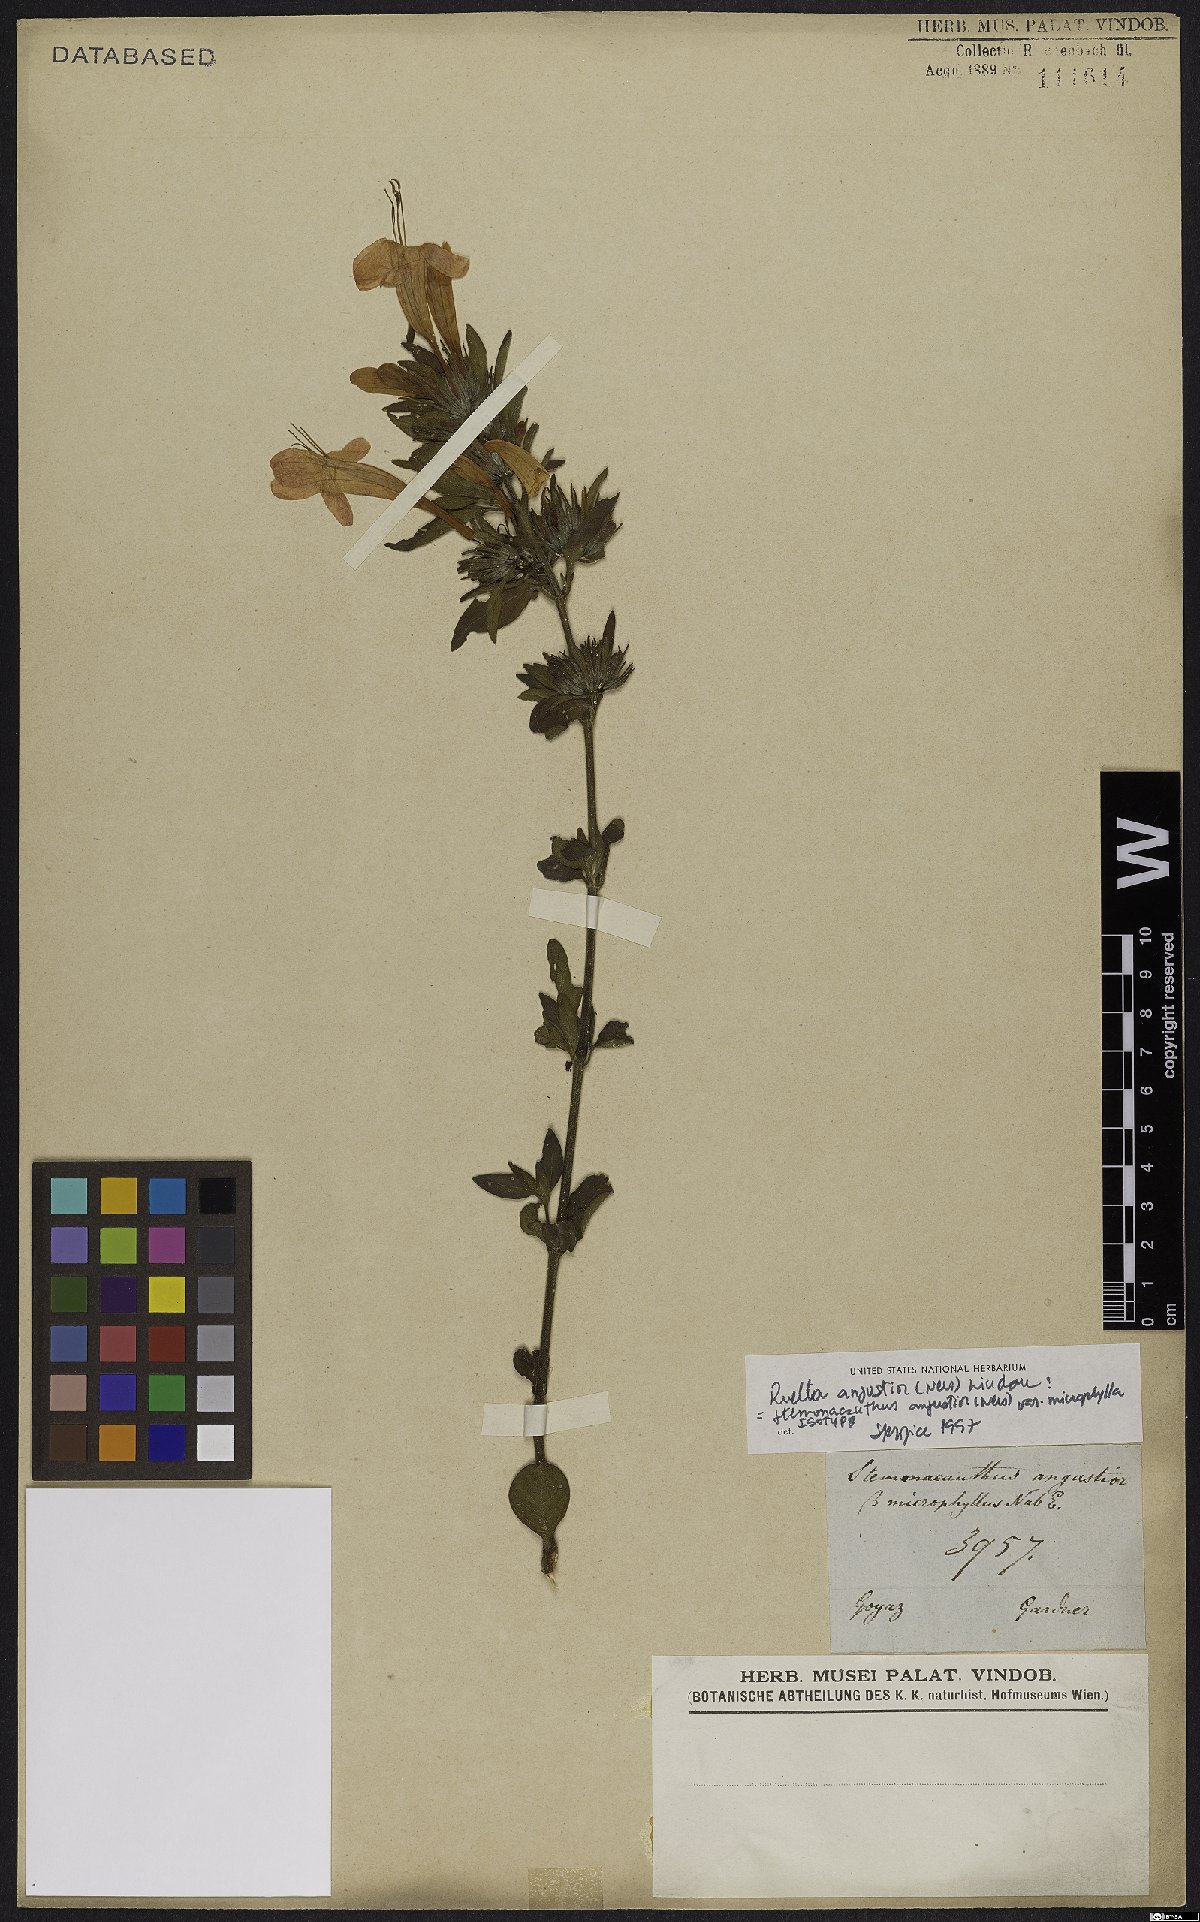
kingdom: Plantae
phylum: Tracheophyta
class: Magnoliopsida
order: Lamiales
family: Acanthaceae
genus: Ruellia
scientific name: Ruellia angustior
